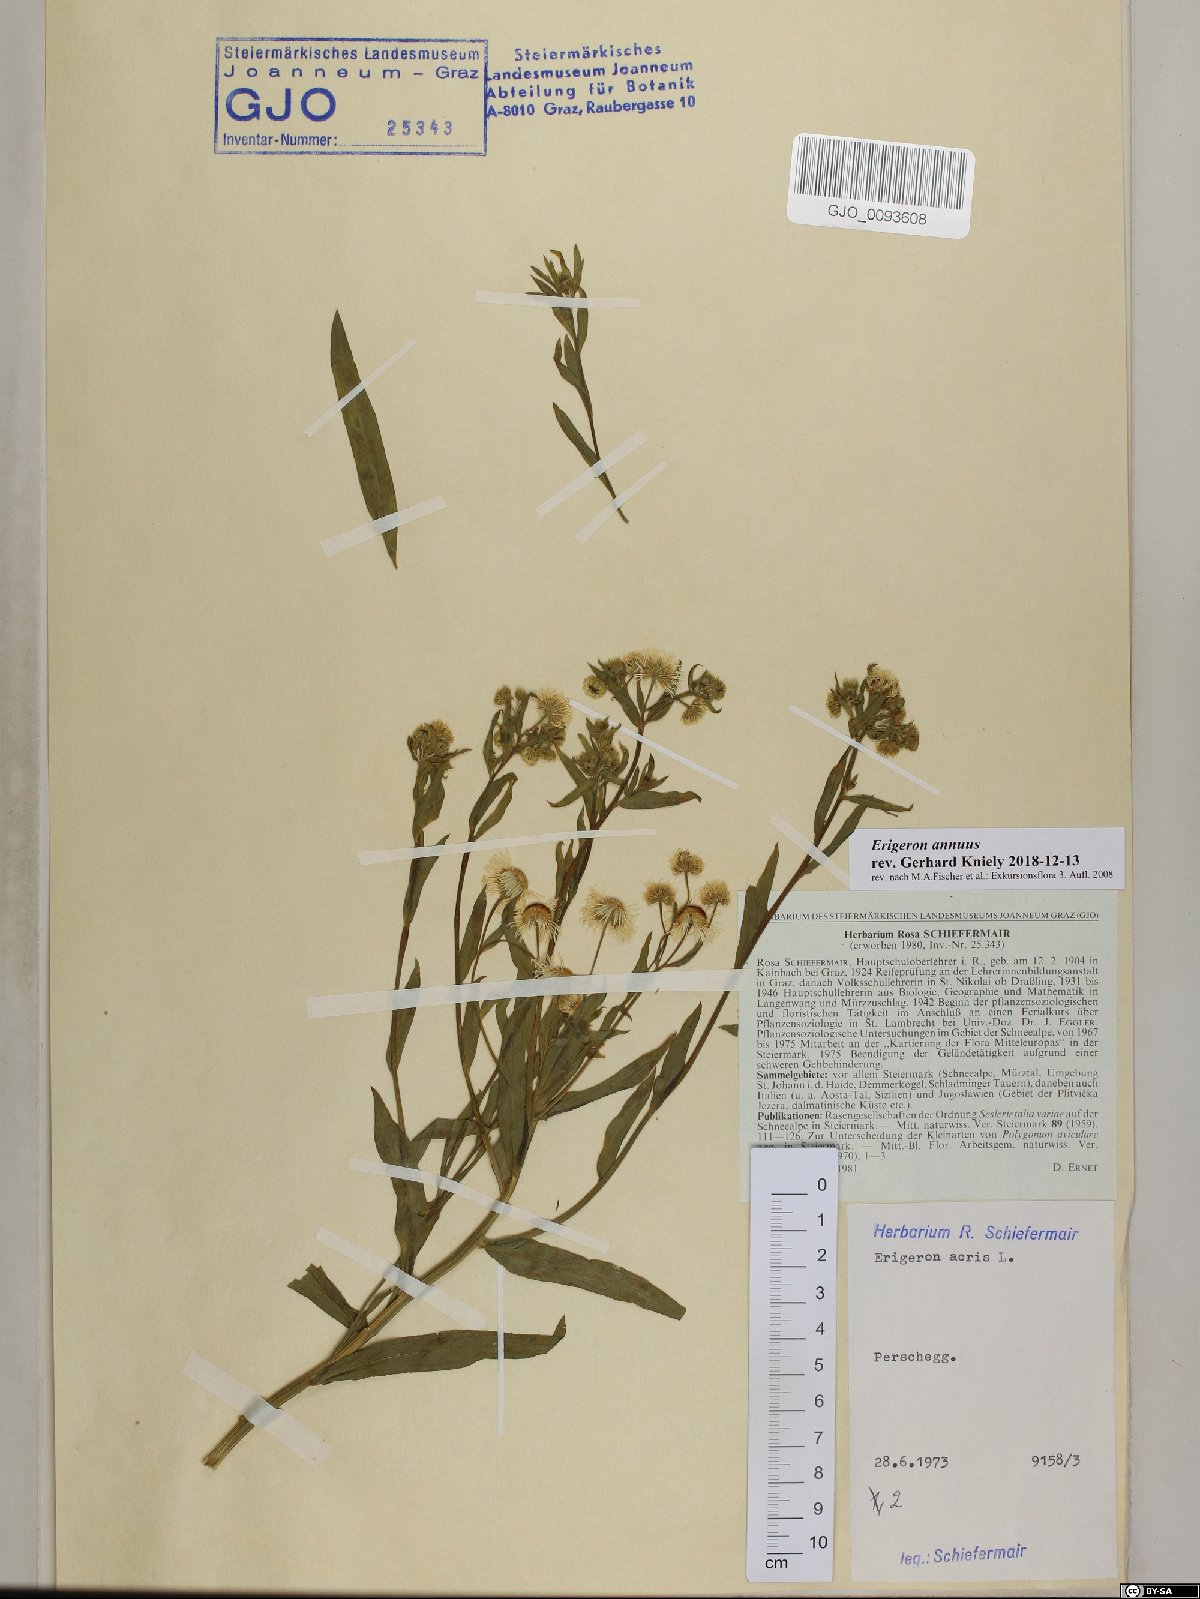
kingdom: Plantae
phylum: Tracheophyta
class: Magnoliopsida
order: Asterales
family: Asteraceae
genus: Erigeron
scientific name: Erigeron annuus
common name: Tall fleabane
